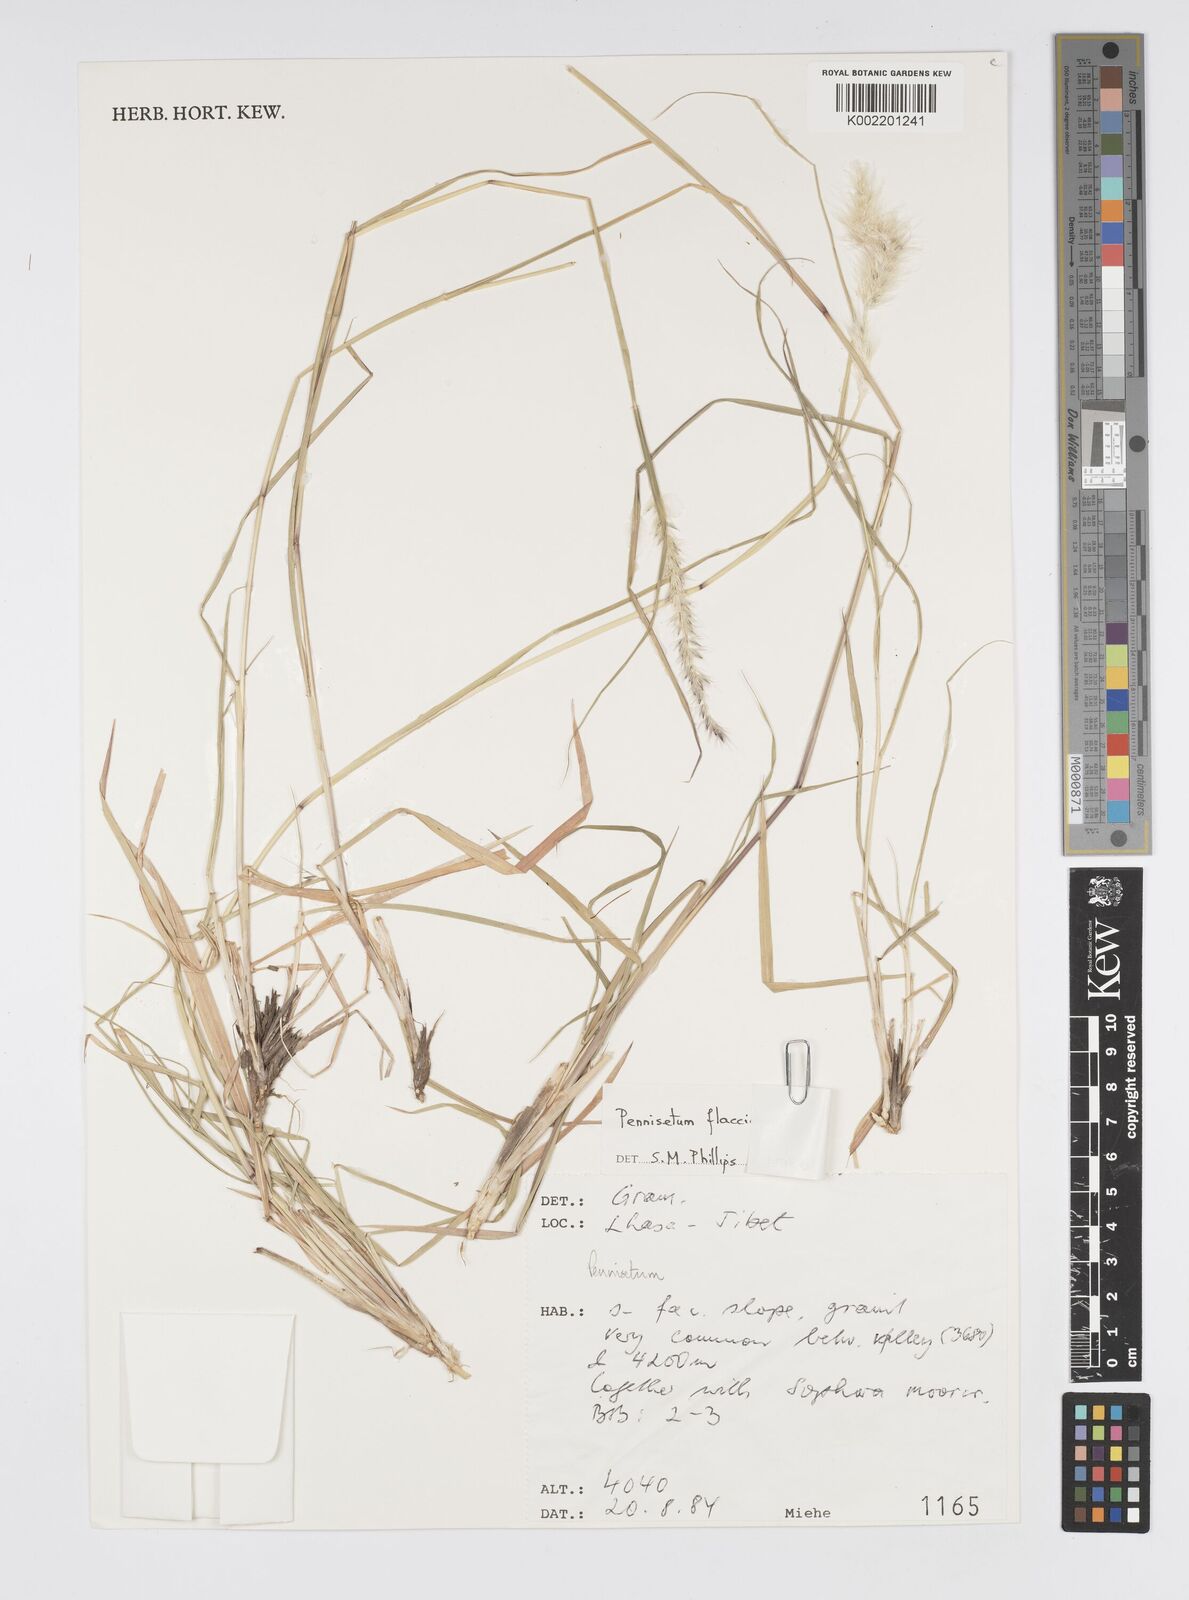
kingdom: Plantae
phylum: Tracheophyta
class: Liliopsida
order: Poales
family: Poaceae
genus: Cenchrus
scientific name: Cenchrus flaccidus
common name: Flaccid grass
